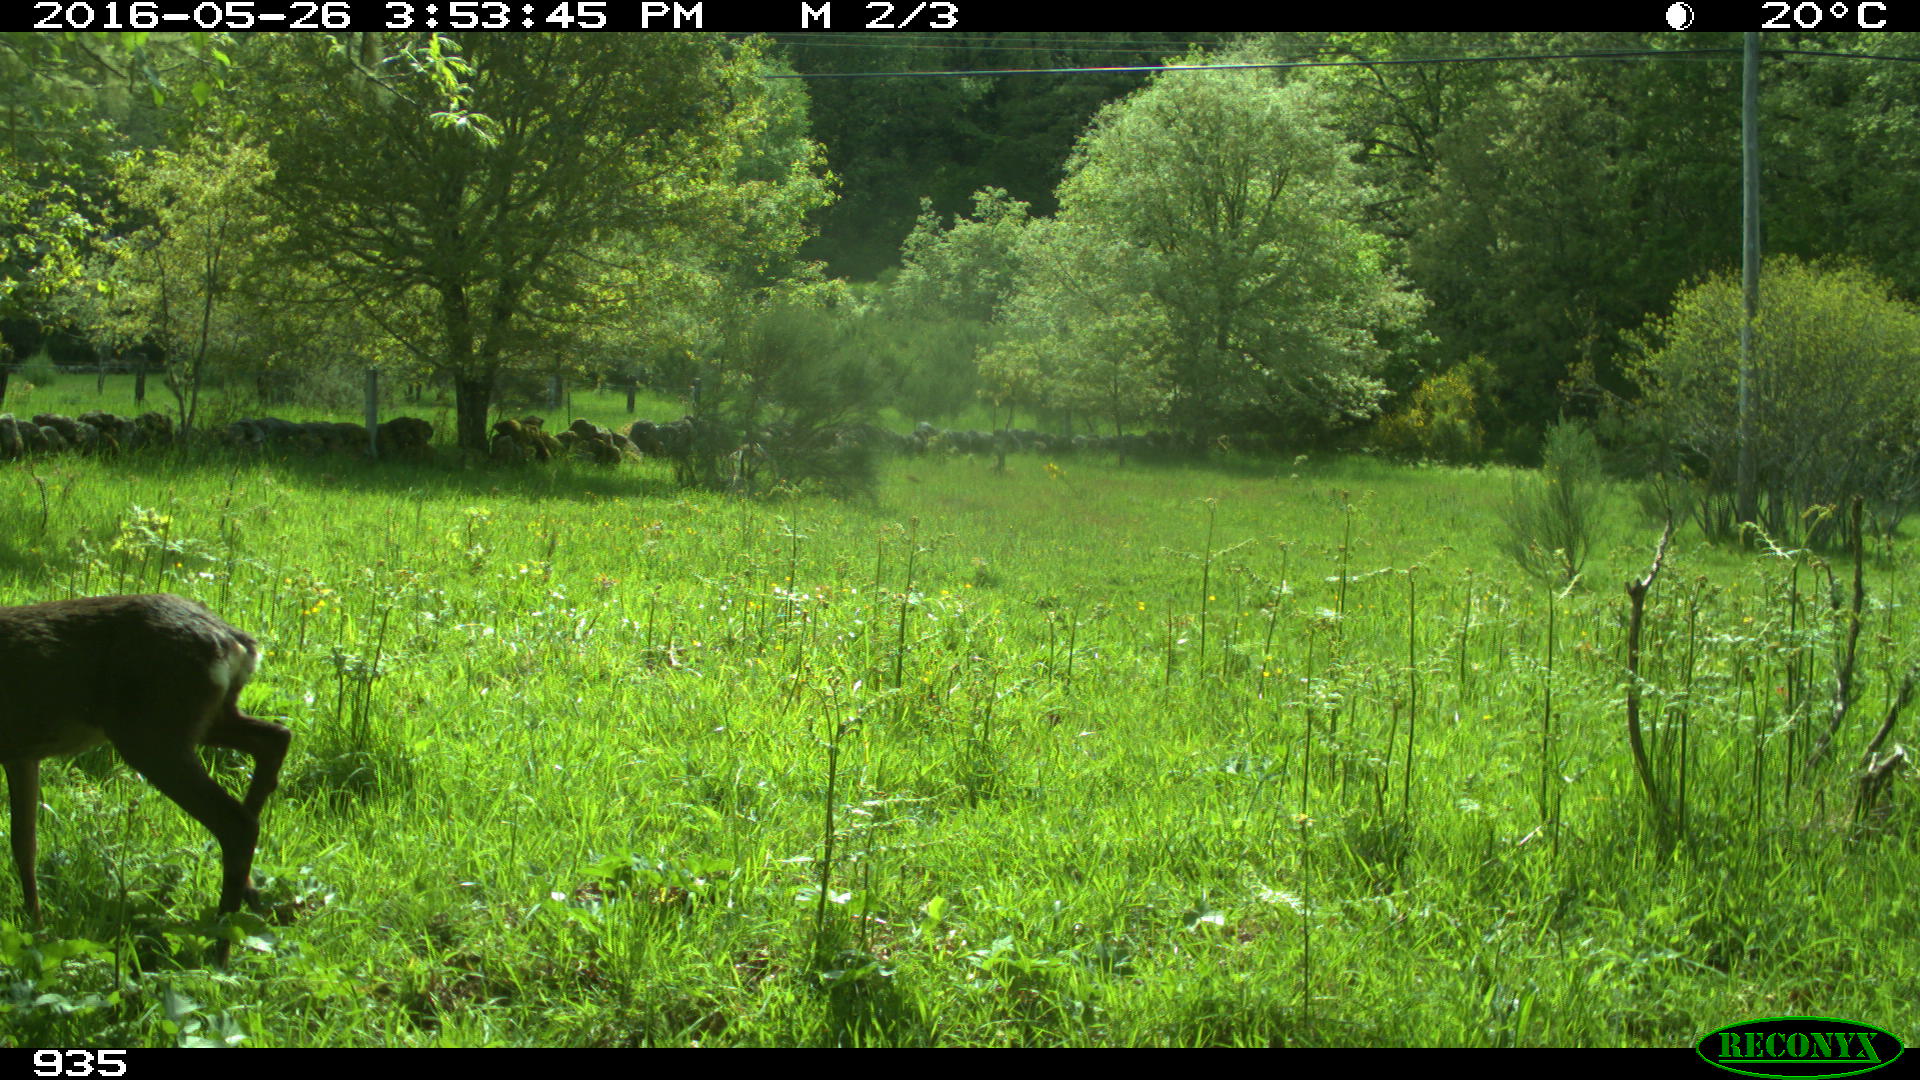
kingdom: Animalia
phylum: Chordata
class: Mammalia
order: Artiodactyla
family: Cervidae
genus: Capreolus
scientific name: Capreolus capreolus
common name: Western roe deer
